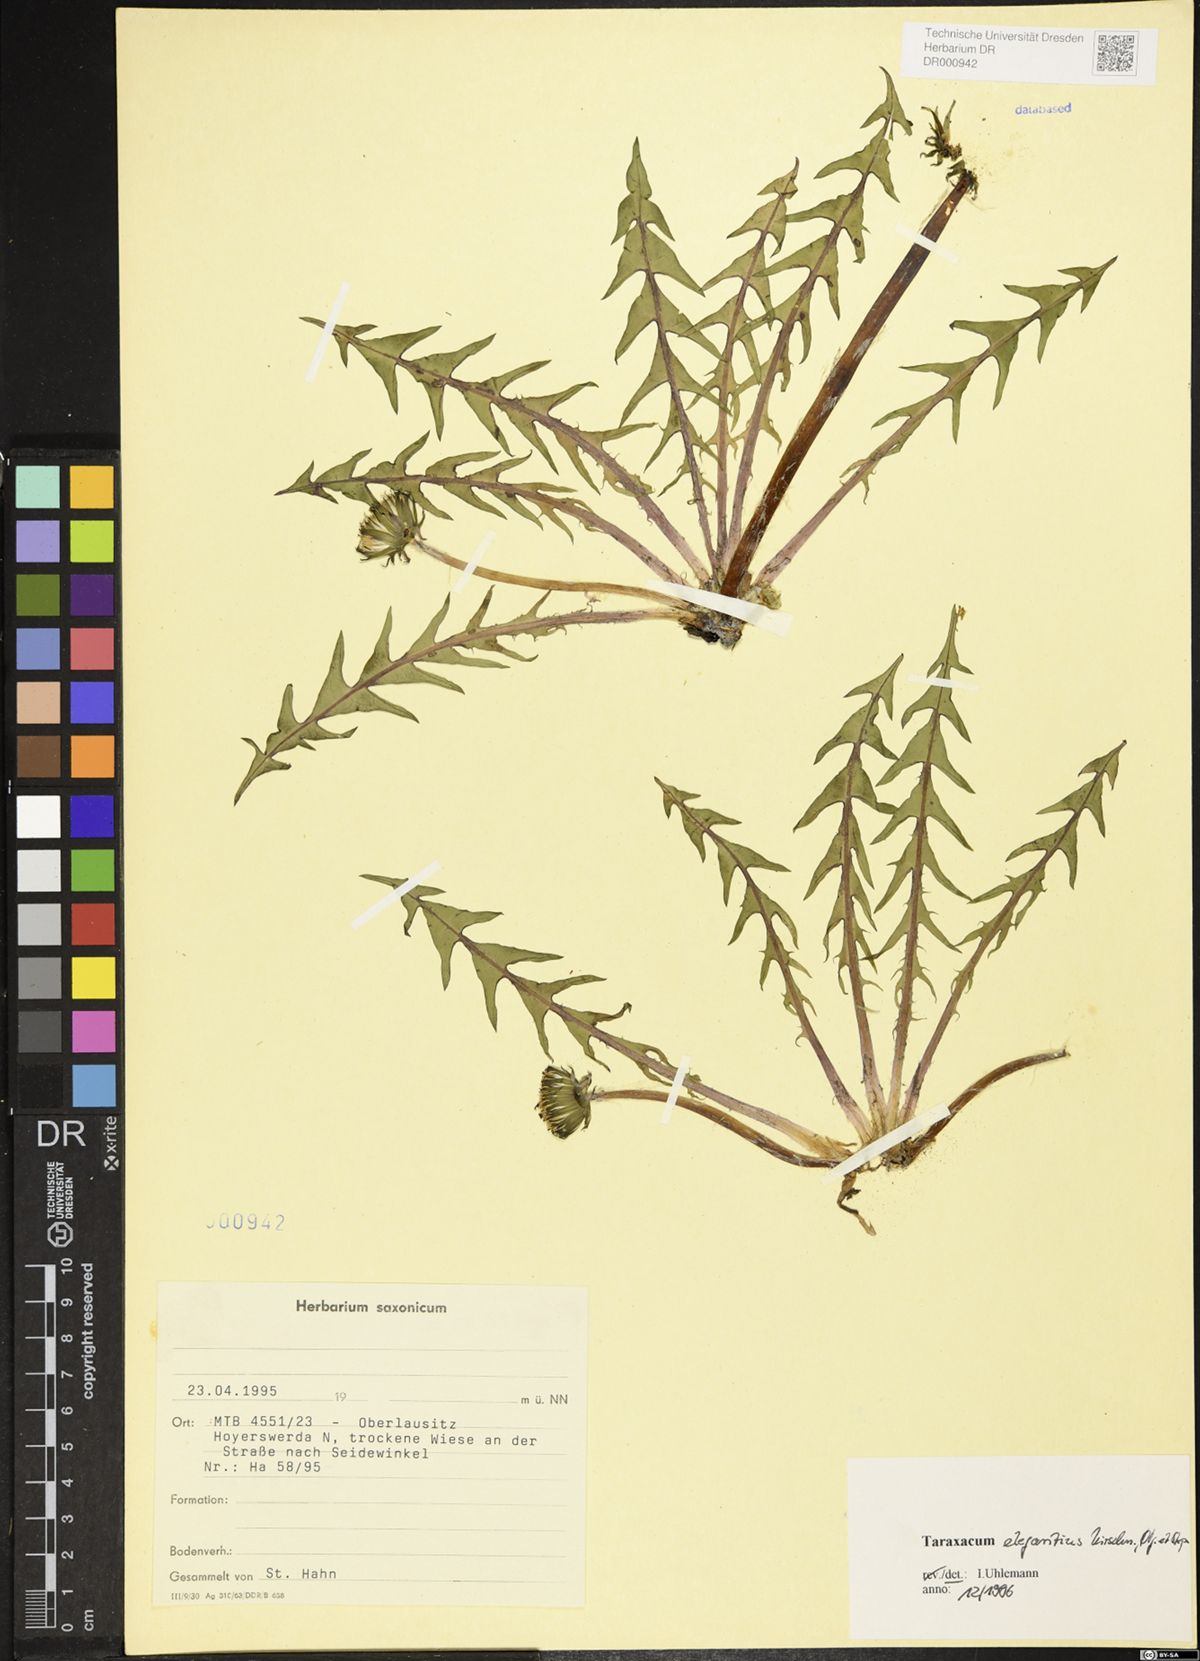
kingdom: Plantae
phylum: Tracheophyta
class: Magnoliopsida
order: Asterales
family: Asteraceae
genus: Taraxacum
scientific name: Taraxacum elegantius
